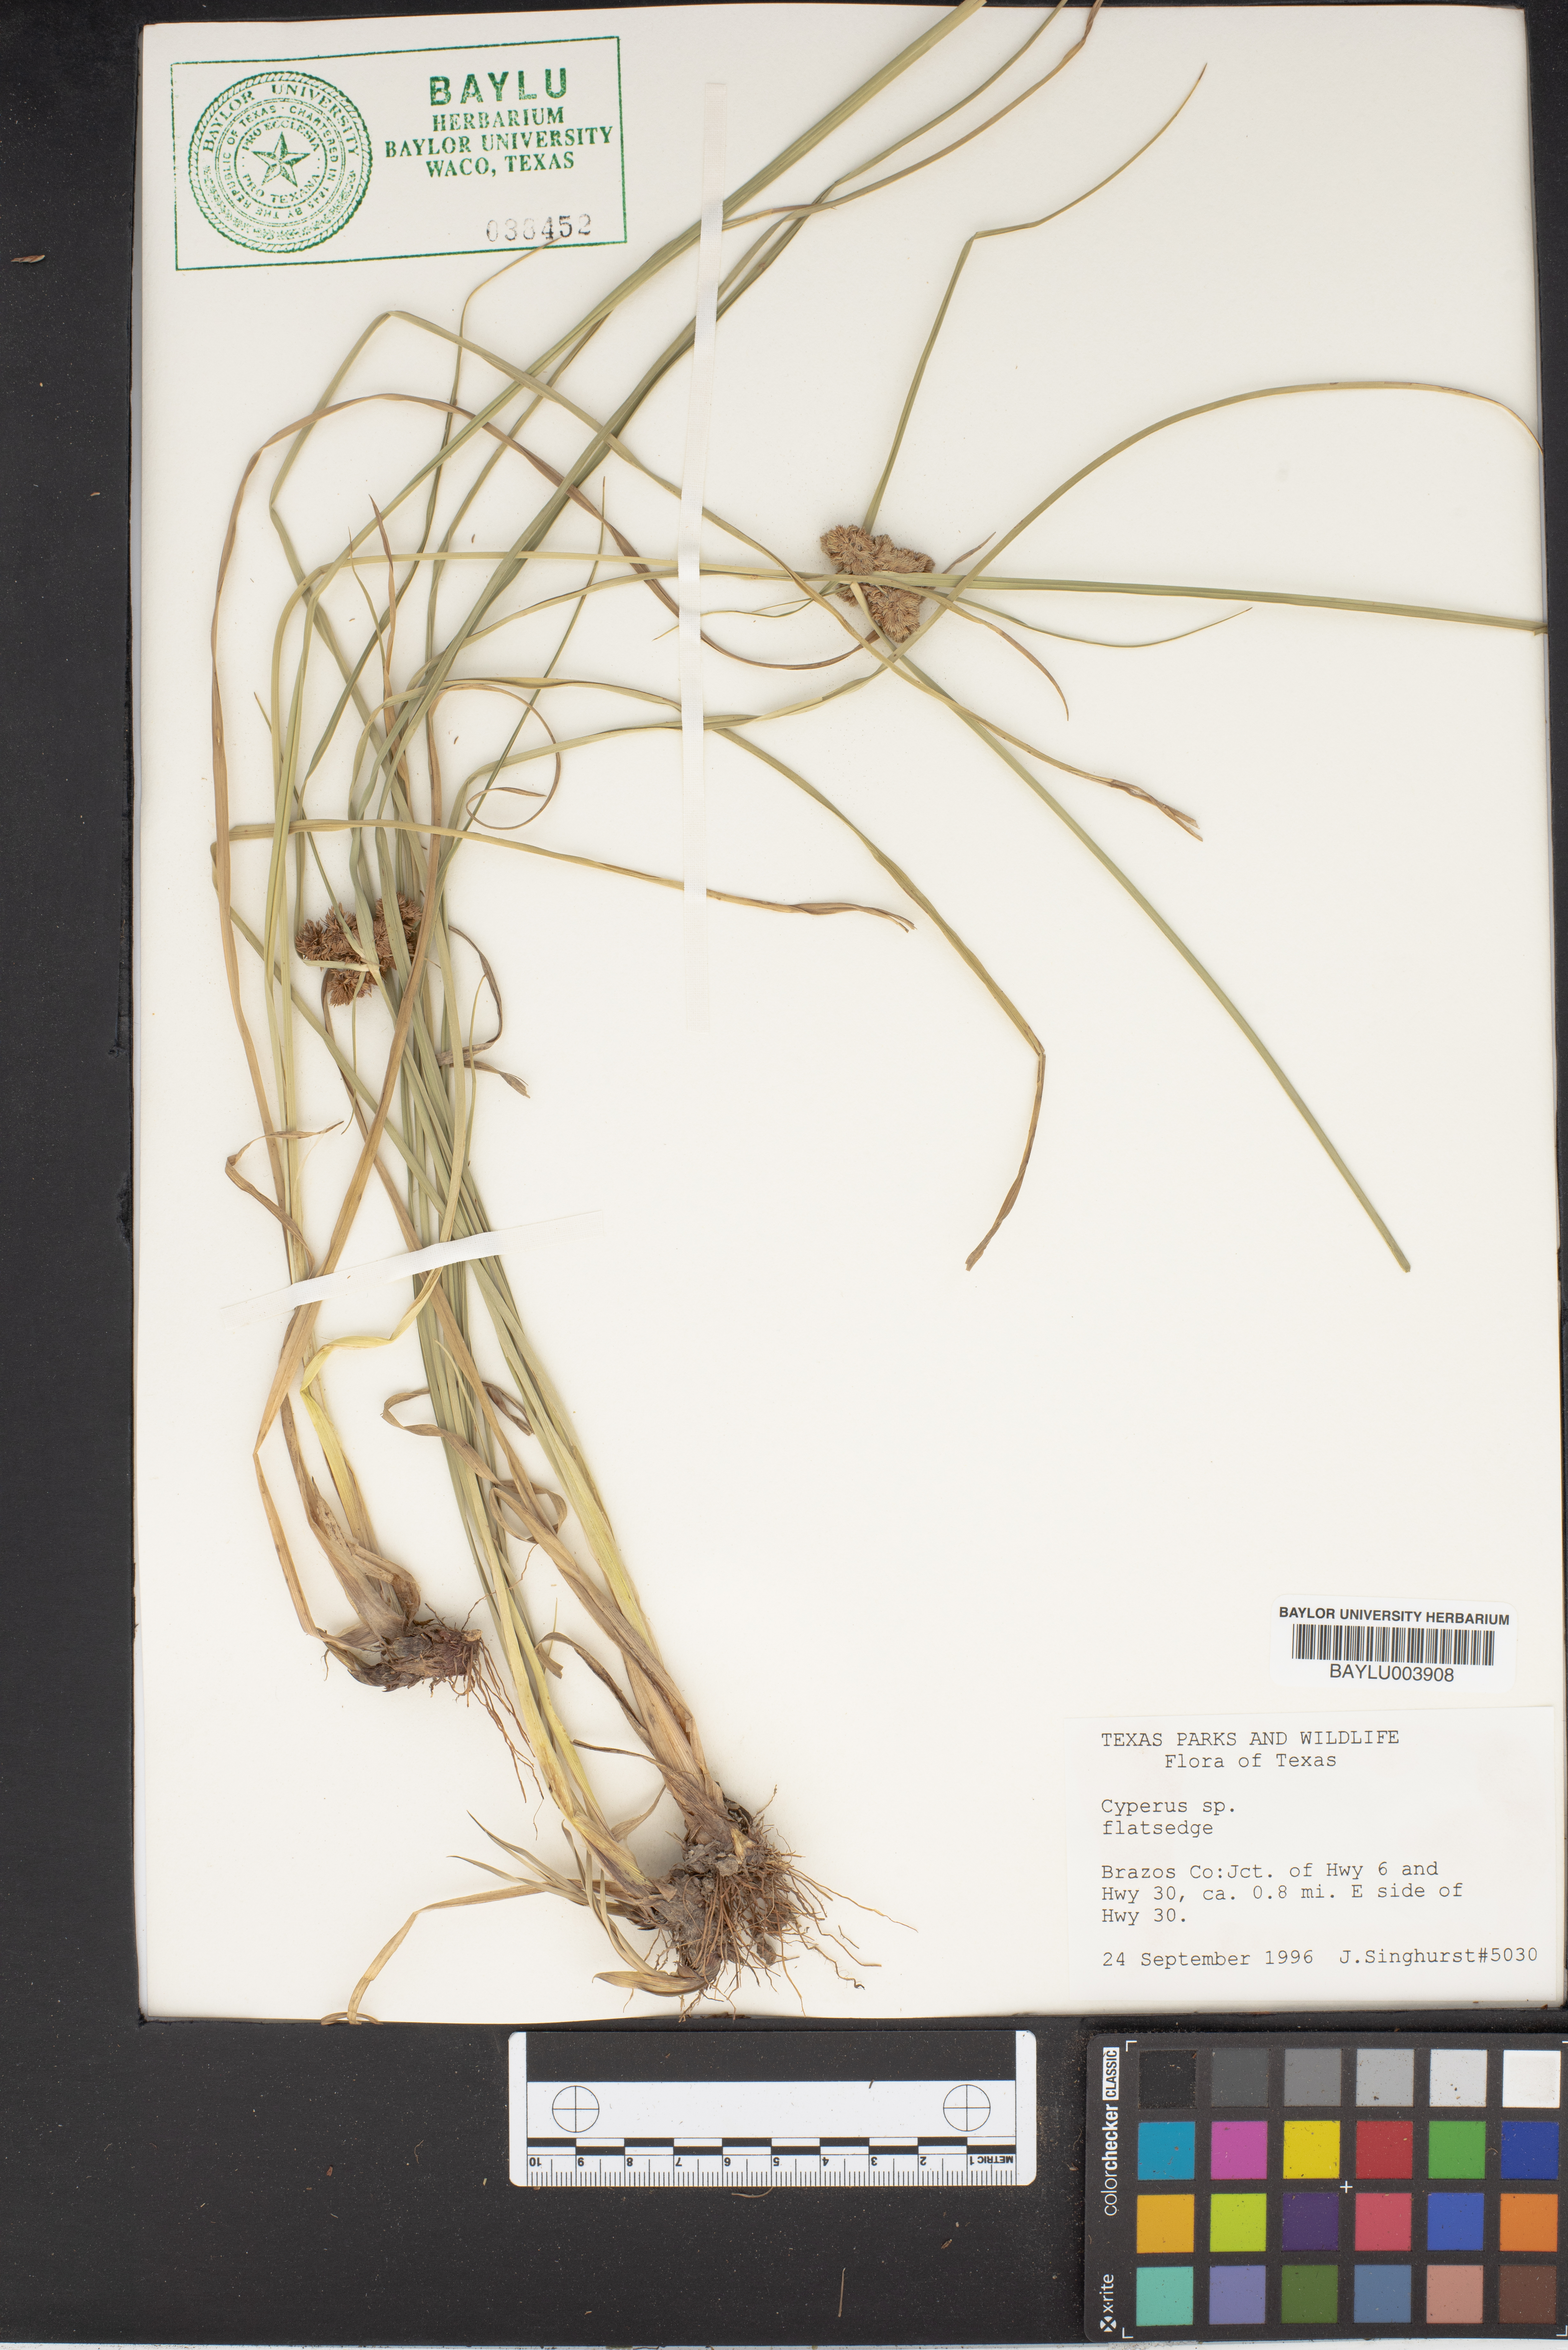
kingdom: Plantae
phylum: Tracheophyta
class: Liliopsida
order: Poales
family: Cyperaceae
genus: Cyperus
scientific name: Cyperus
